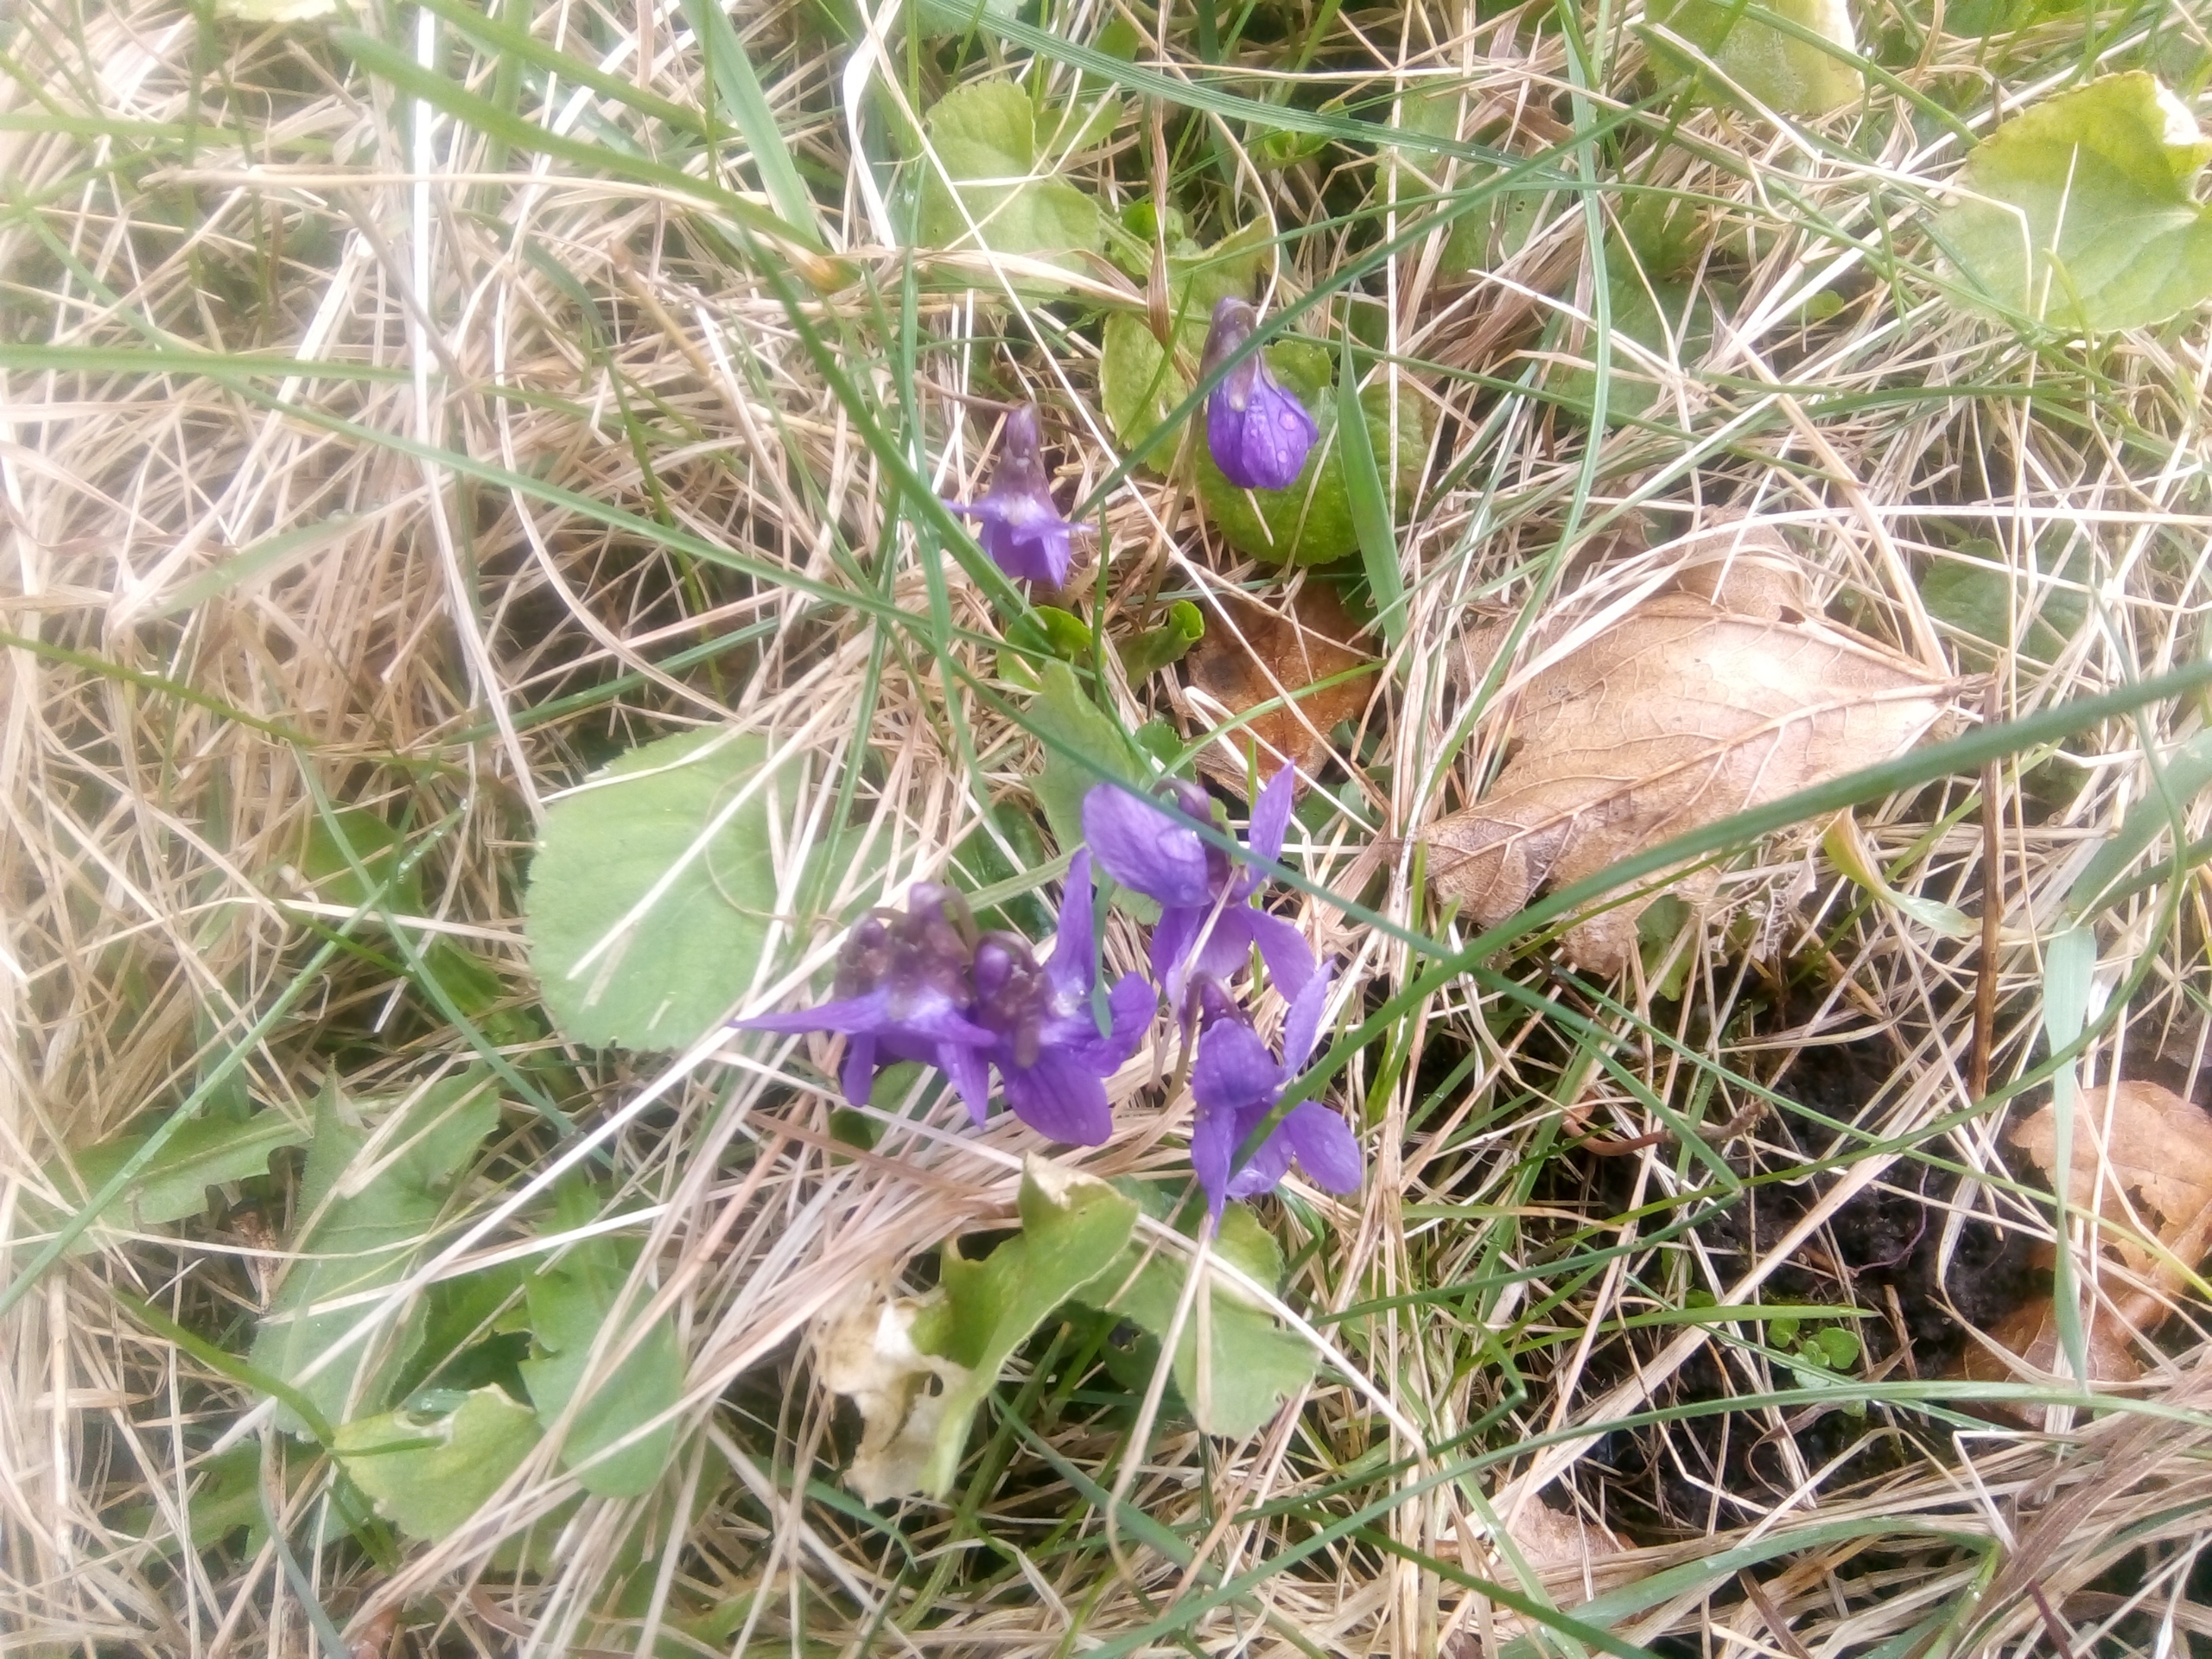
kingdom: Plantae
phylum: Tracheophyta
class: Magnoliopsida
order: Malpighiales
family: Violaceae
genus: Viola
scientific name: Viola odorata
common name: Marts-viol
